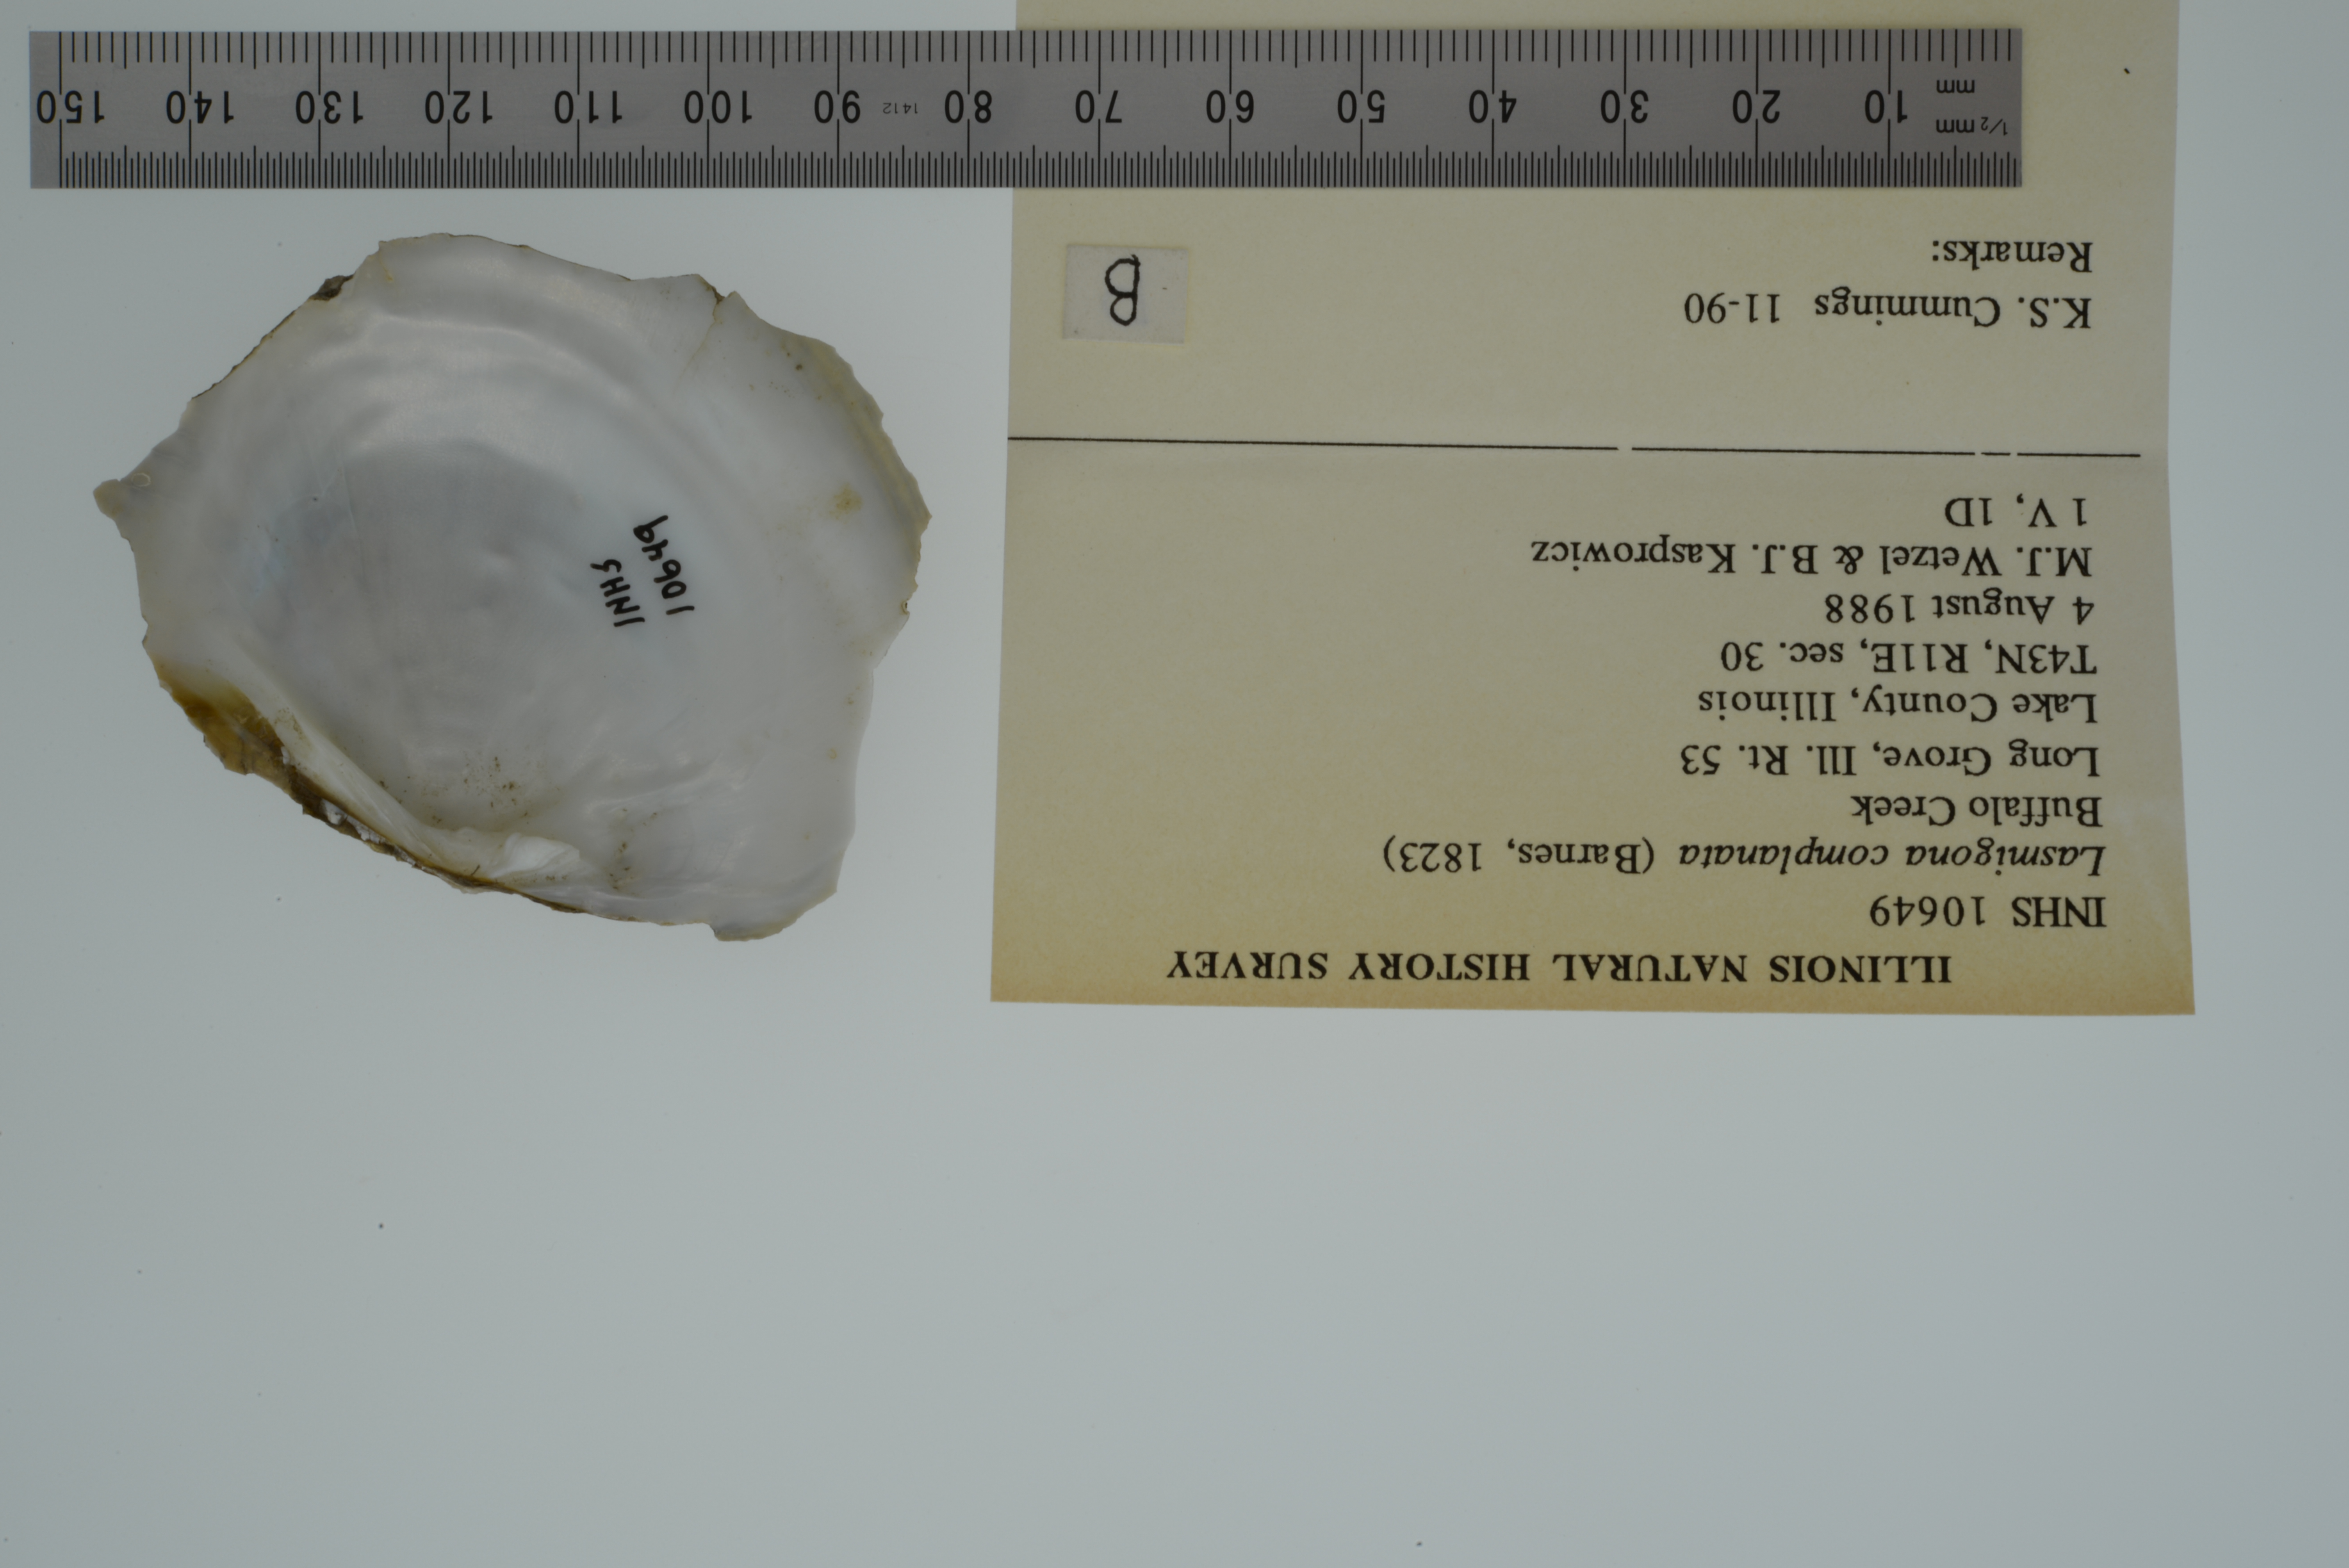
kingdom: Animalia
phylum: Mollusca
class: Bivalvia
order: Unionida
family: Unionidae
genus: Lasmigona
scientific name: Lasmigona complanata
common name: White heelsplitter
